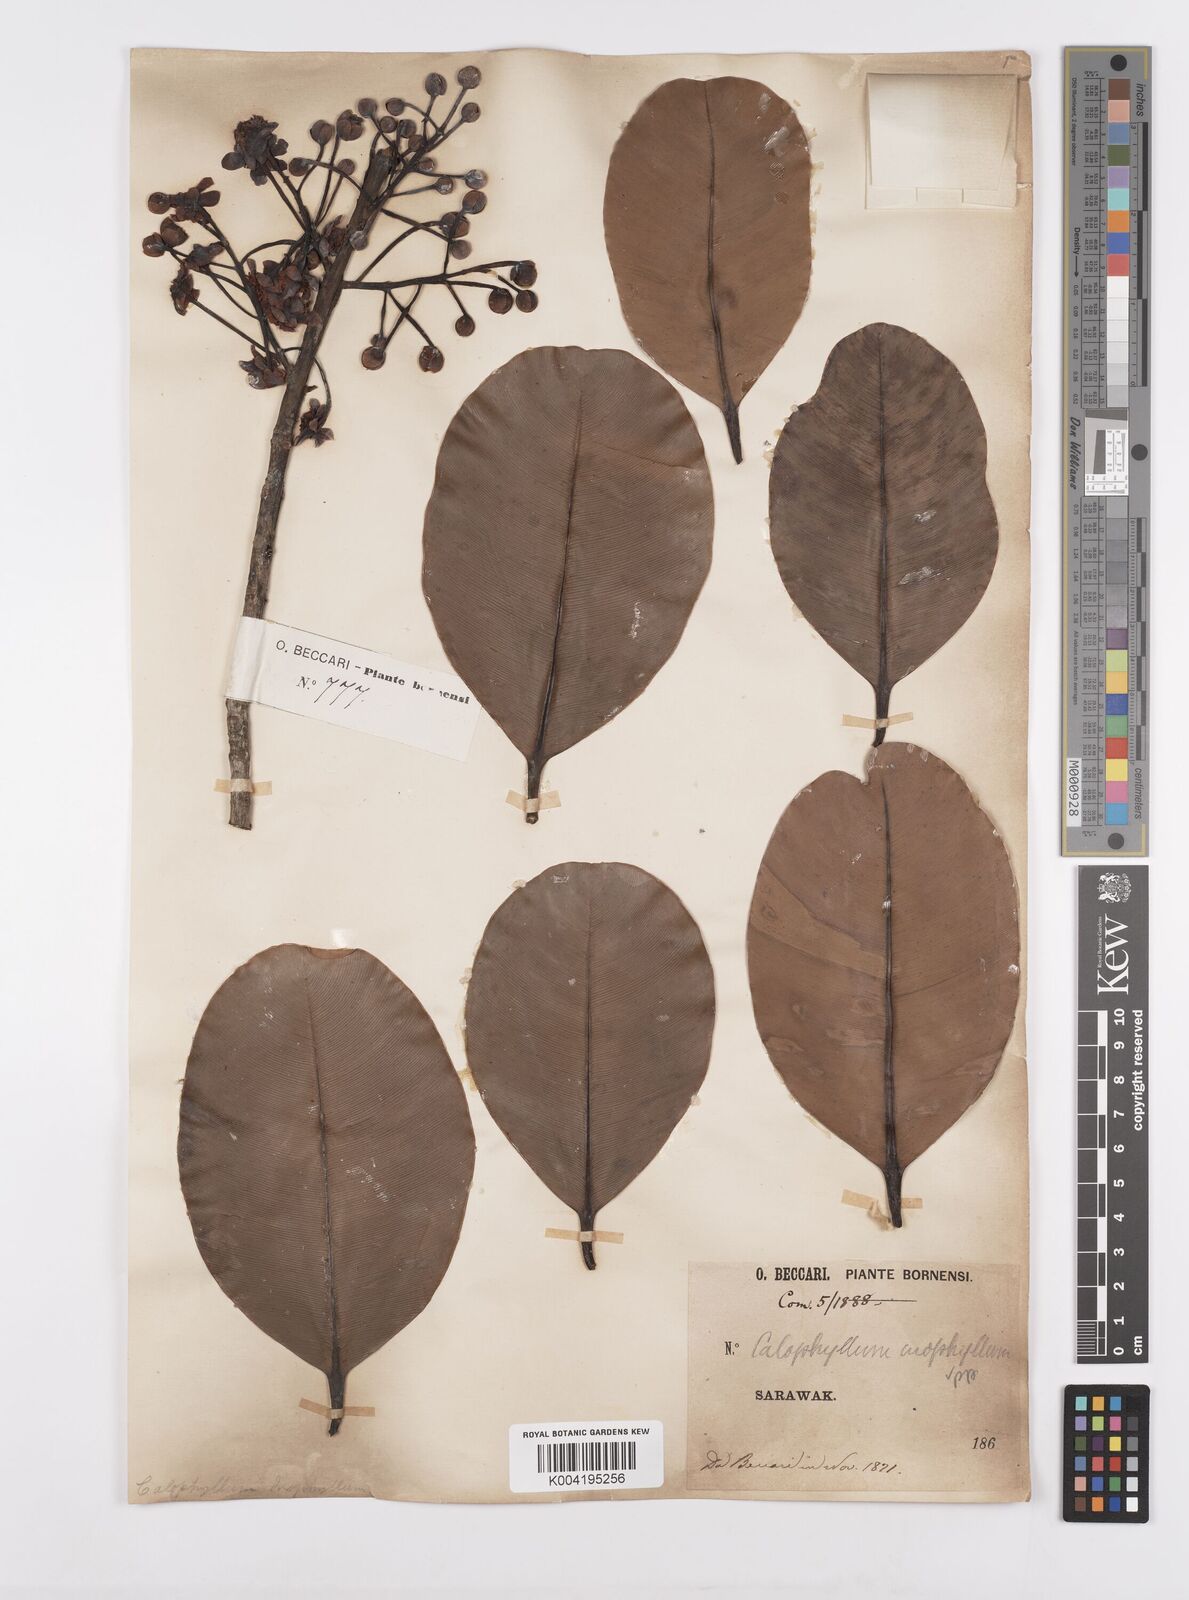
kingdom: Plantae
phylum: Tracheophyta
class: Magnoliopsida
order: Malpighiales
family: Calophyllaceae
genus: Calophyllum
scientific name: Calophyllum inophyllum
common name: Alexandrian laurel
